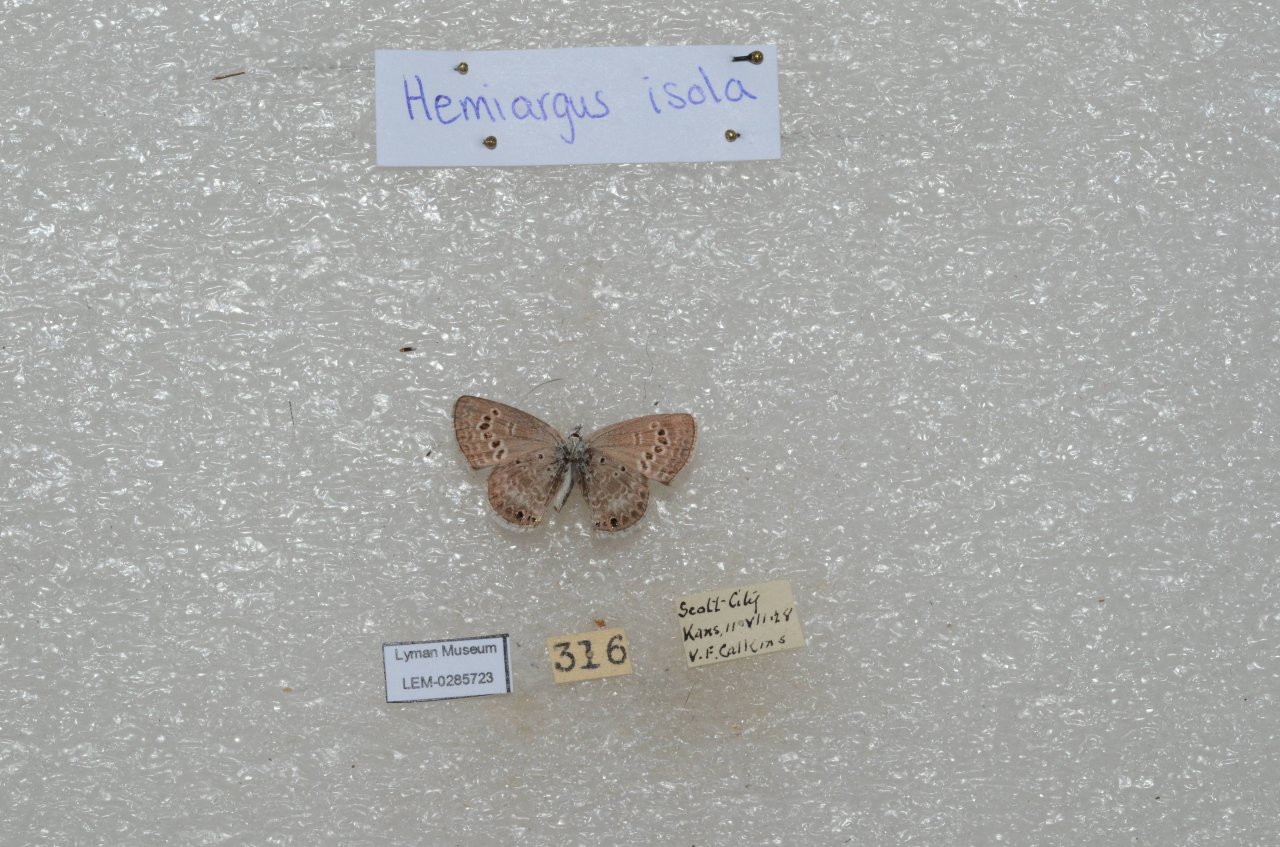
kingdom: Animalia
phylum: Arthropoda
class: Insecta
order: Lepidoptera
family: Lycaenidae
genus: Echinargus
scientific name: Echinargus isola
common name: Reakirt's Blue
